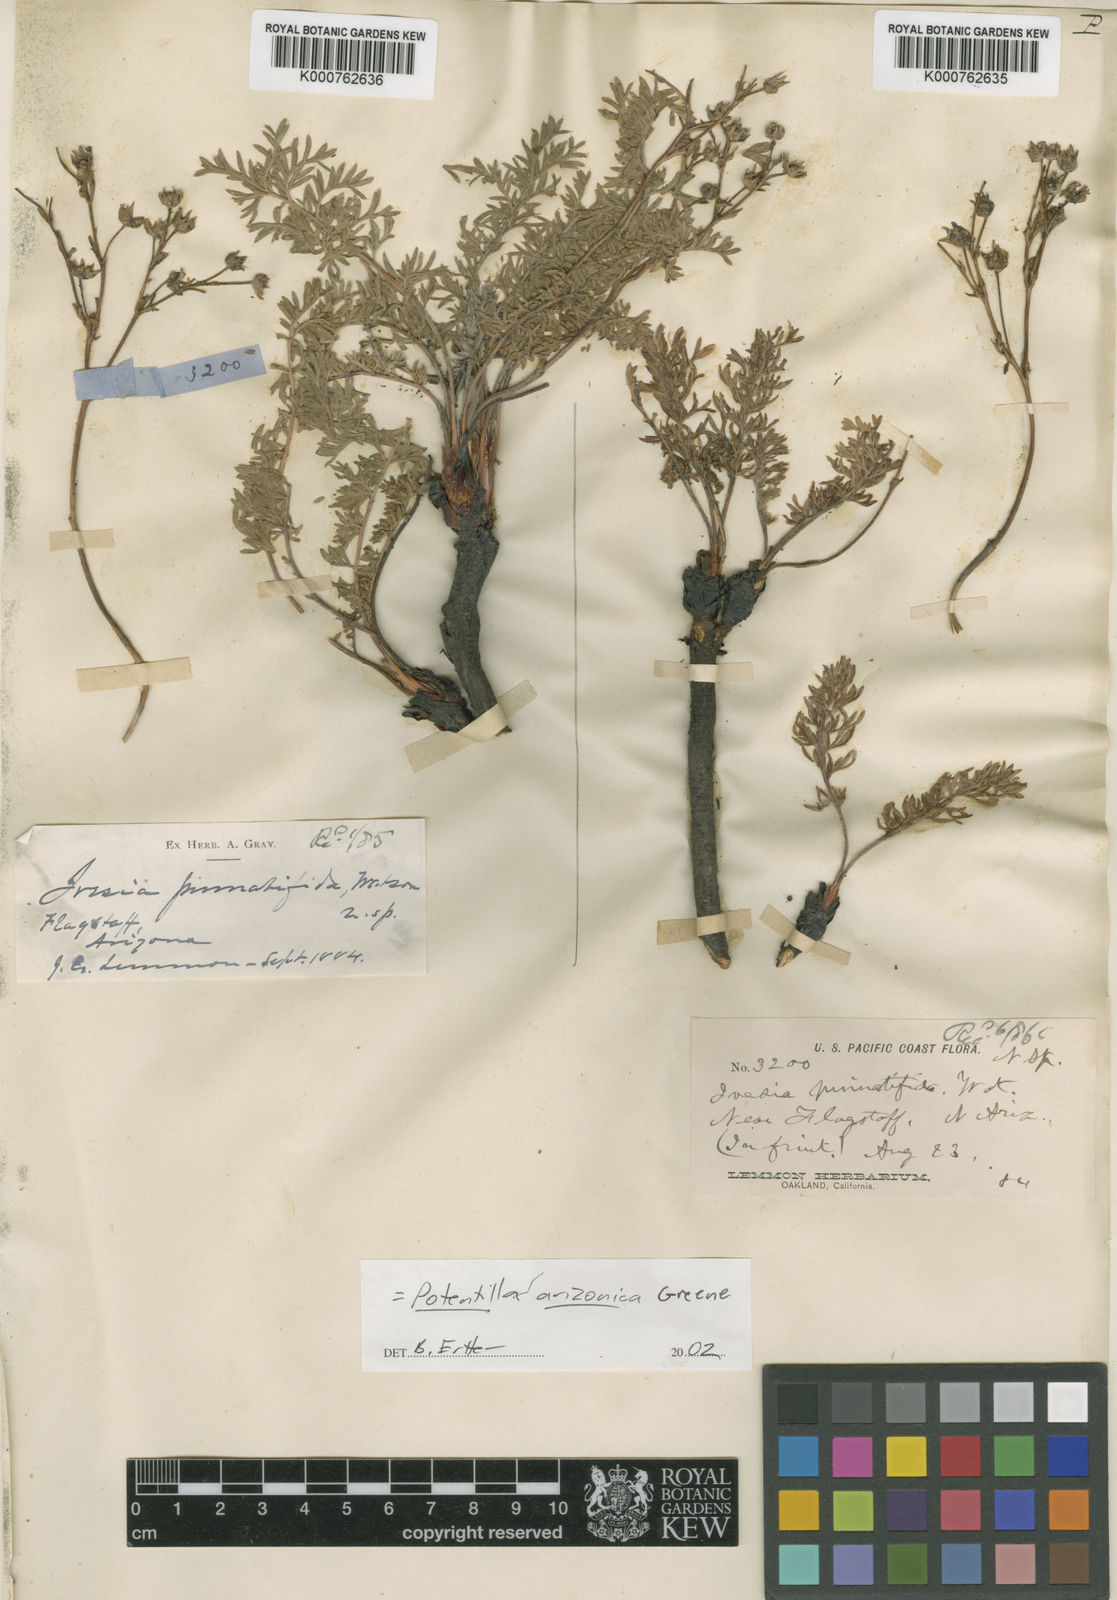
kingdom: Plantae
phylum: Tracheophyta
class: Magnoliopsida
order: Rosales
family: Rosaceae
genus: Potentilla
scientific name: Potentilla arizonica
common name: Garland prairie cinquefoil
